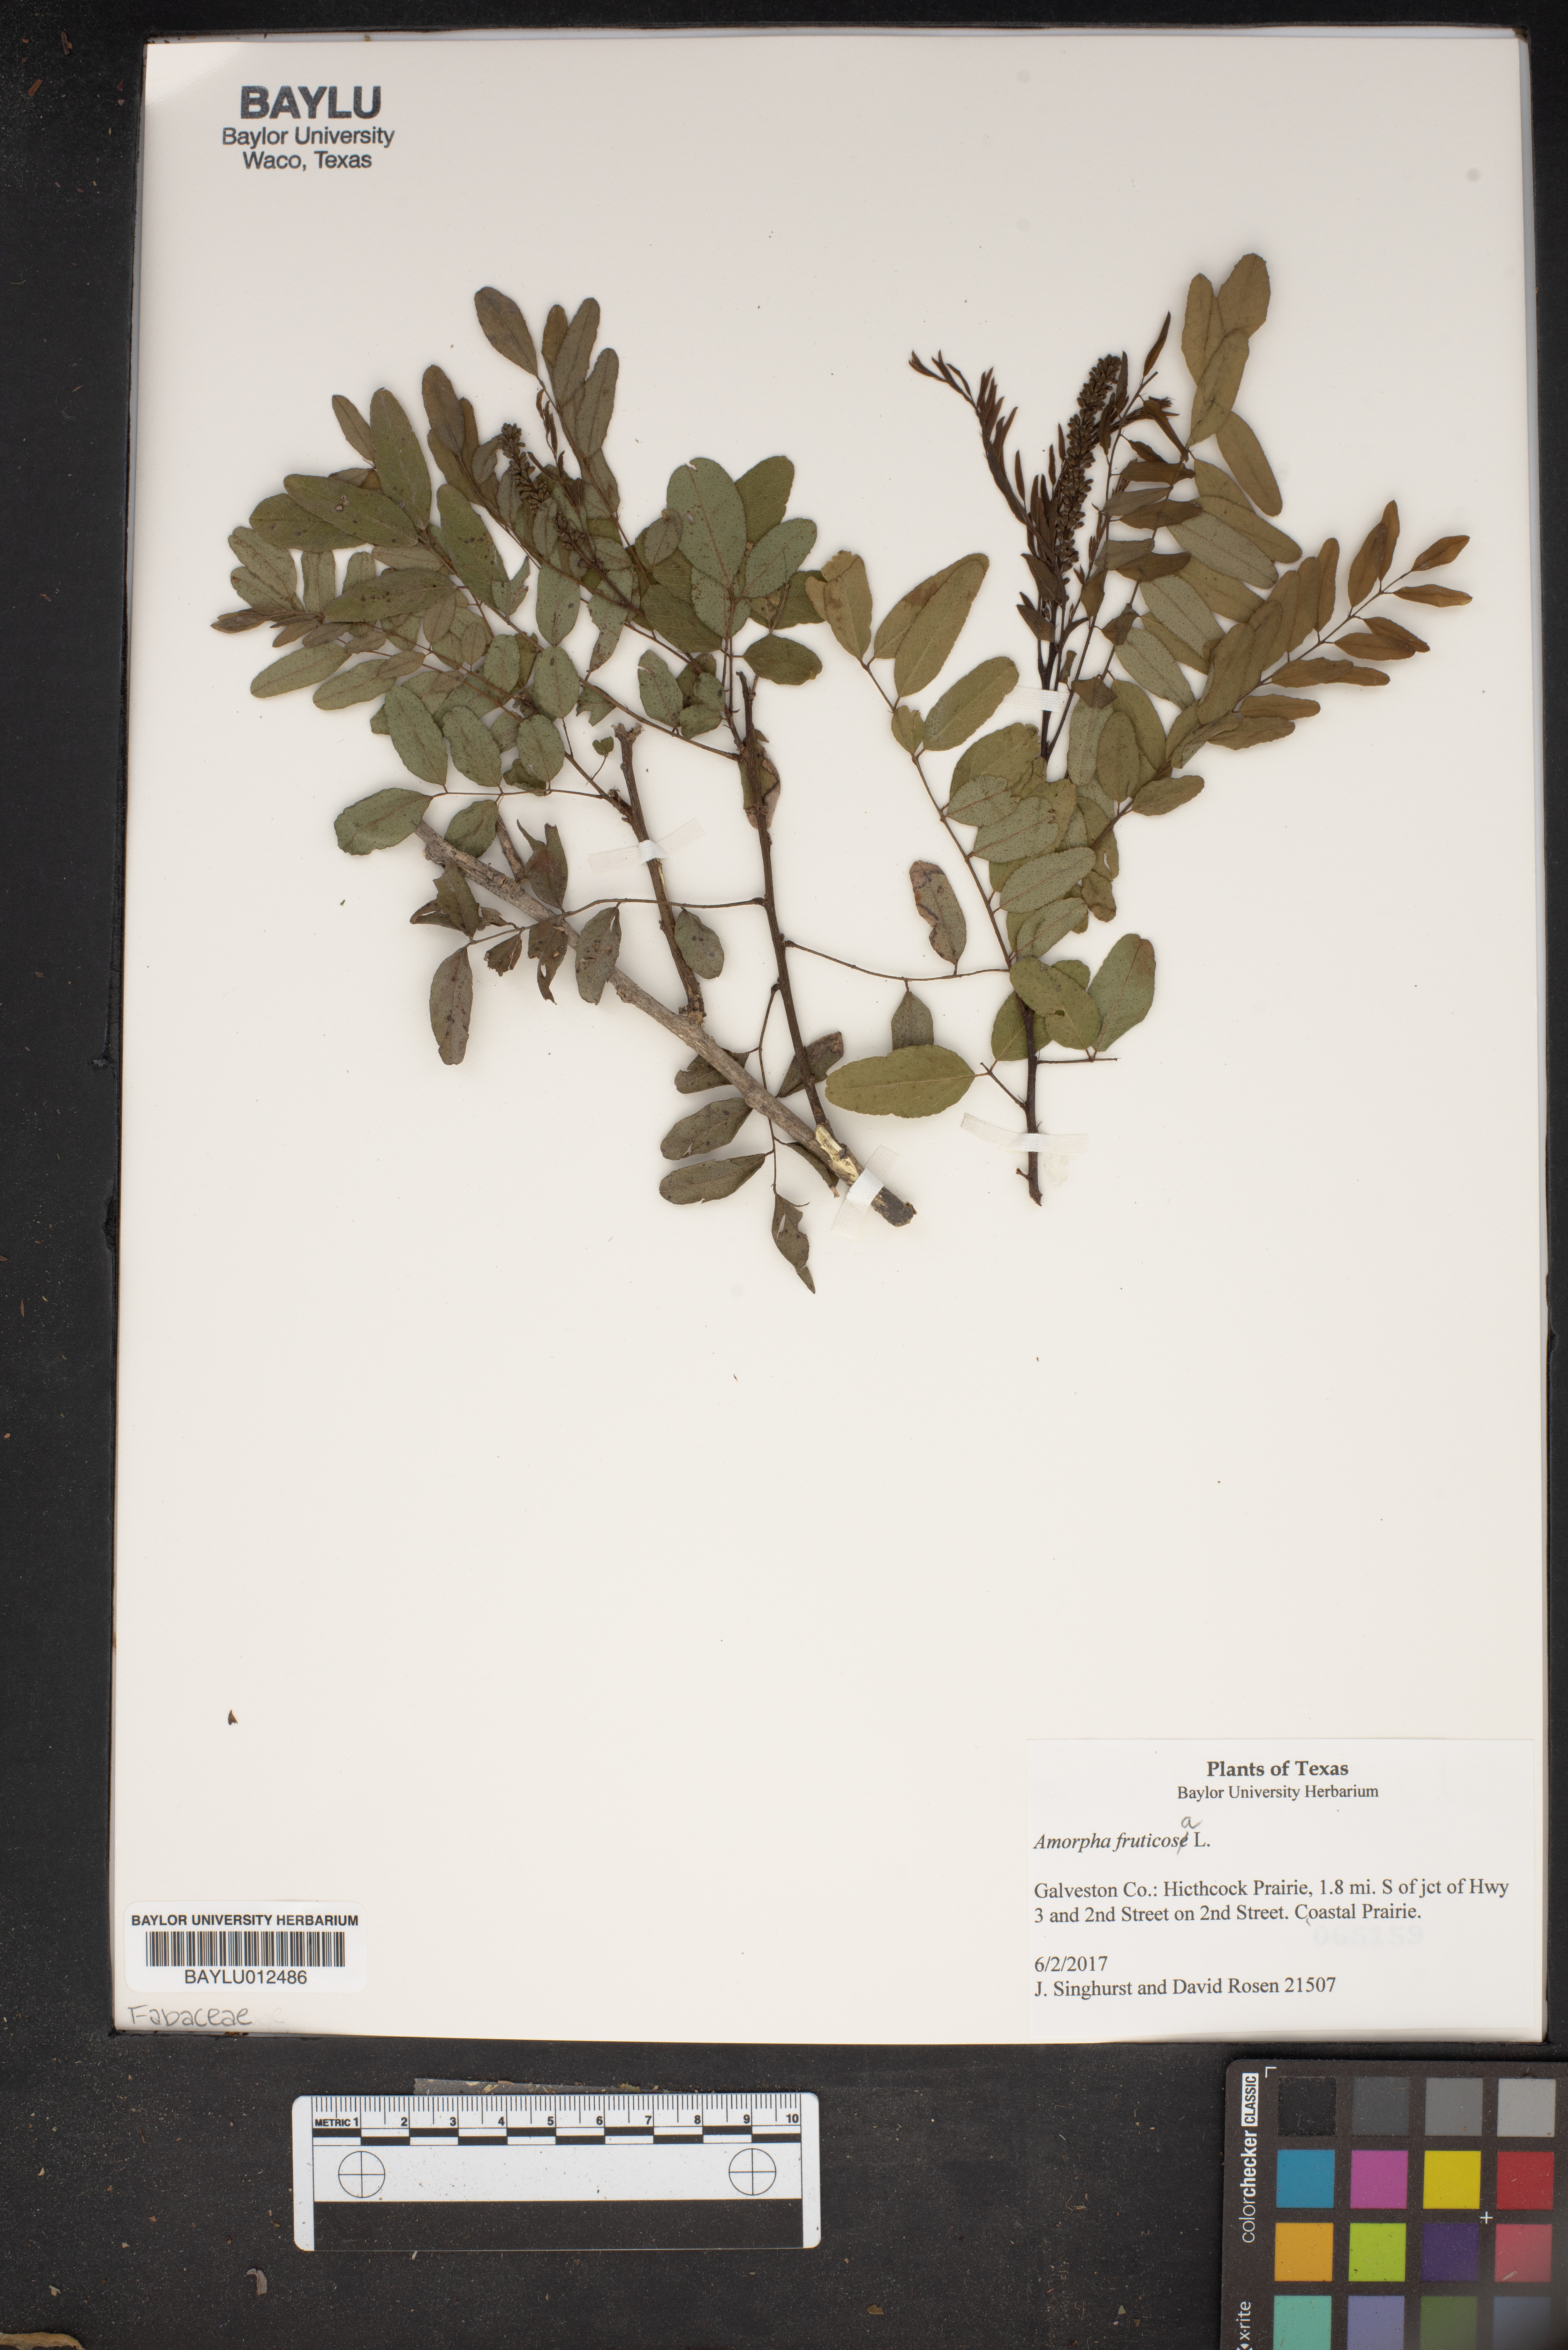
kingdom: Plantae
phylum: Tracheophyta
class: Magnoliopsida
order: Fabales
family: Fabaceae
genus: Amorpha
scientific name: Amorpha fruticosa
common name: False indigo
